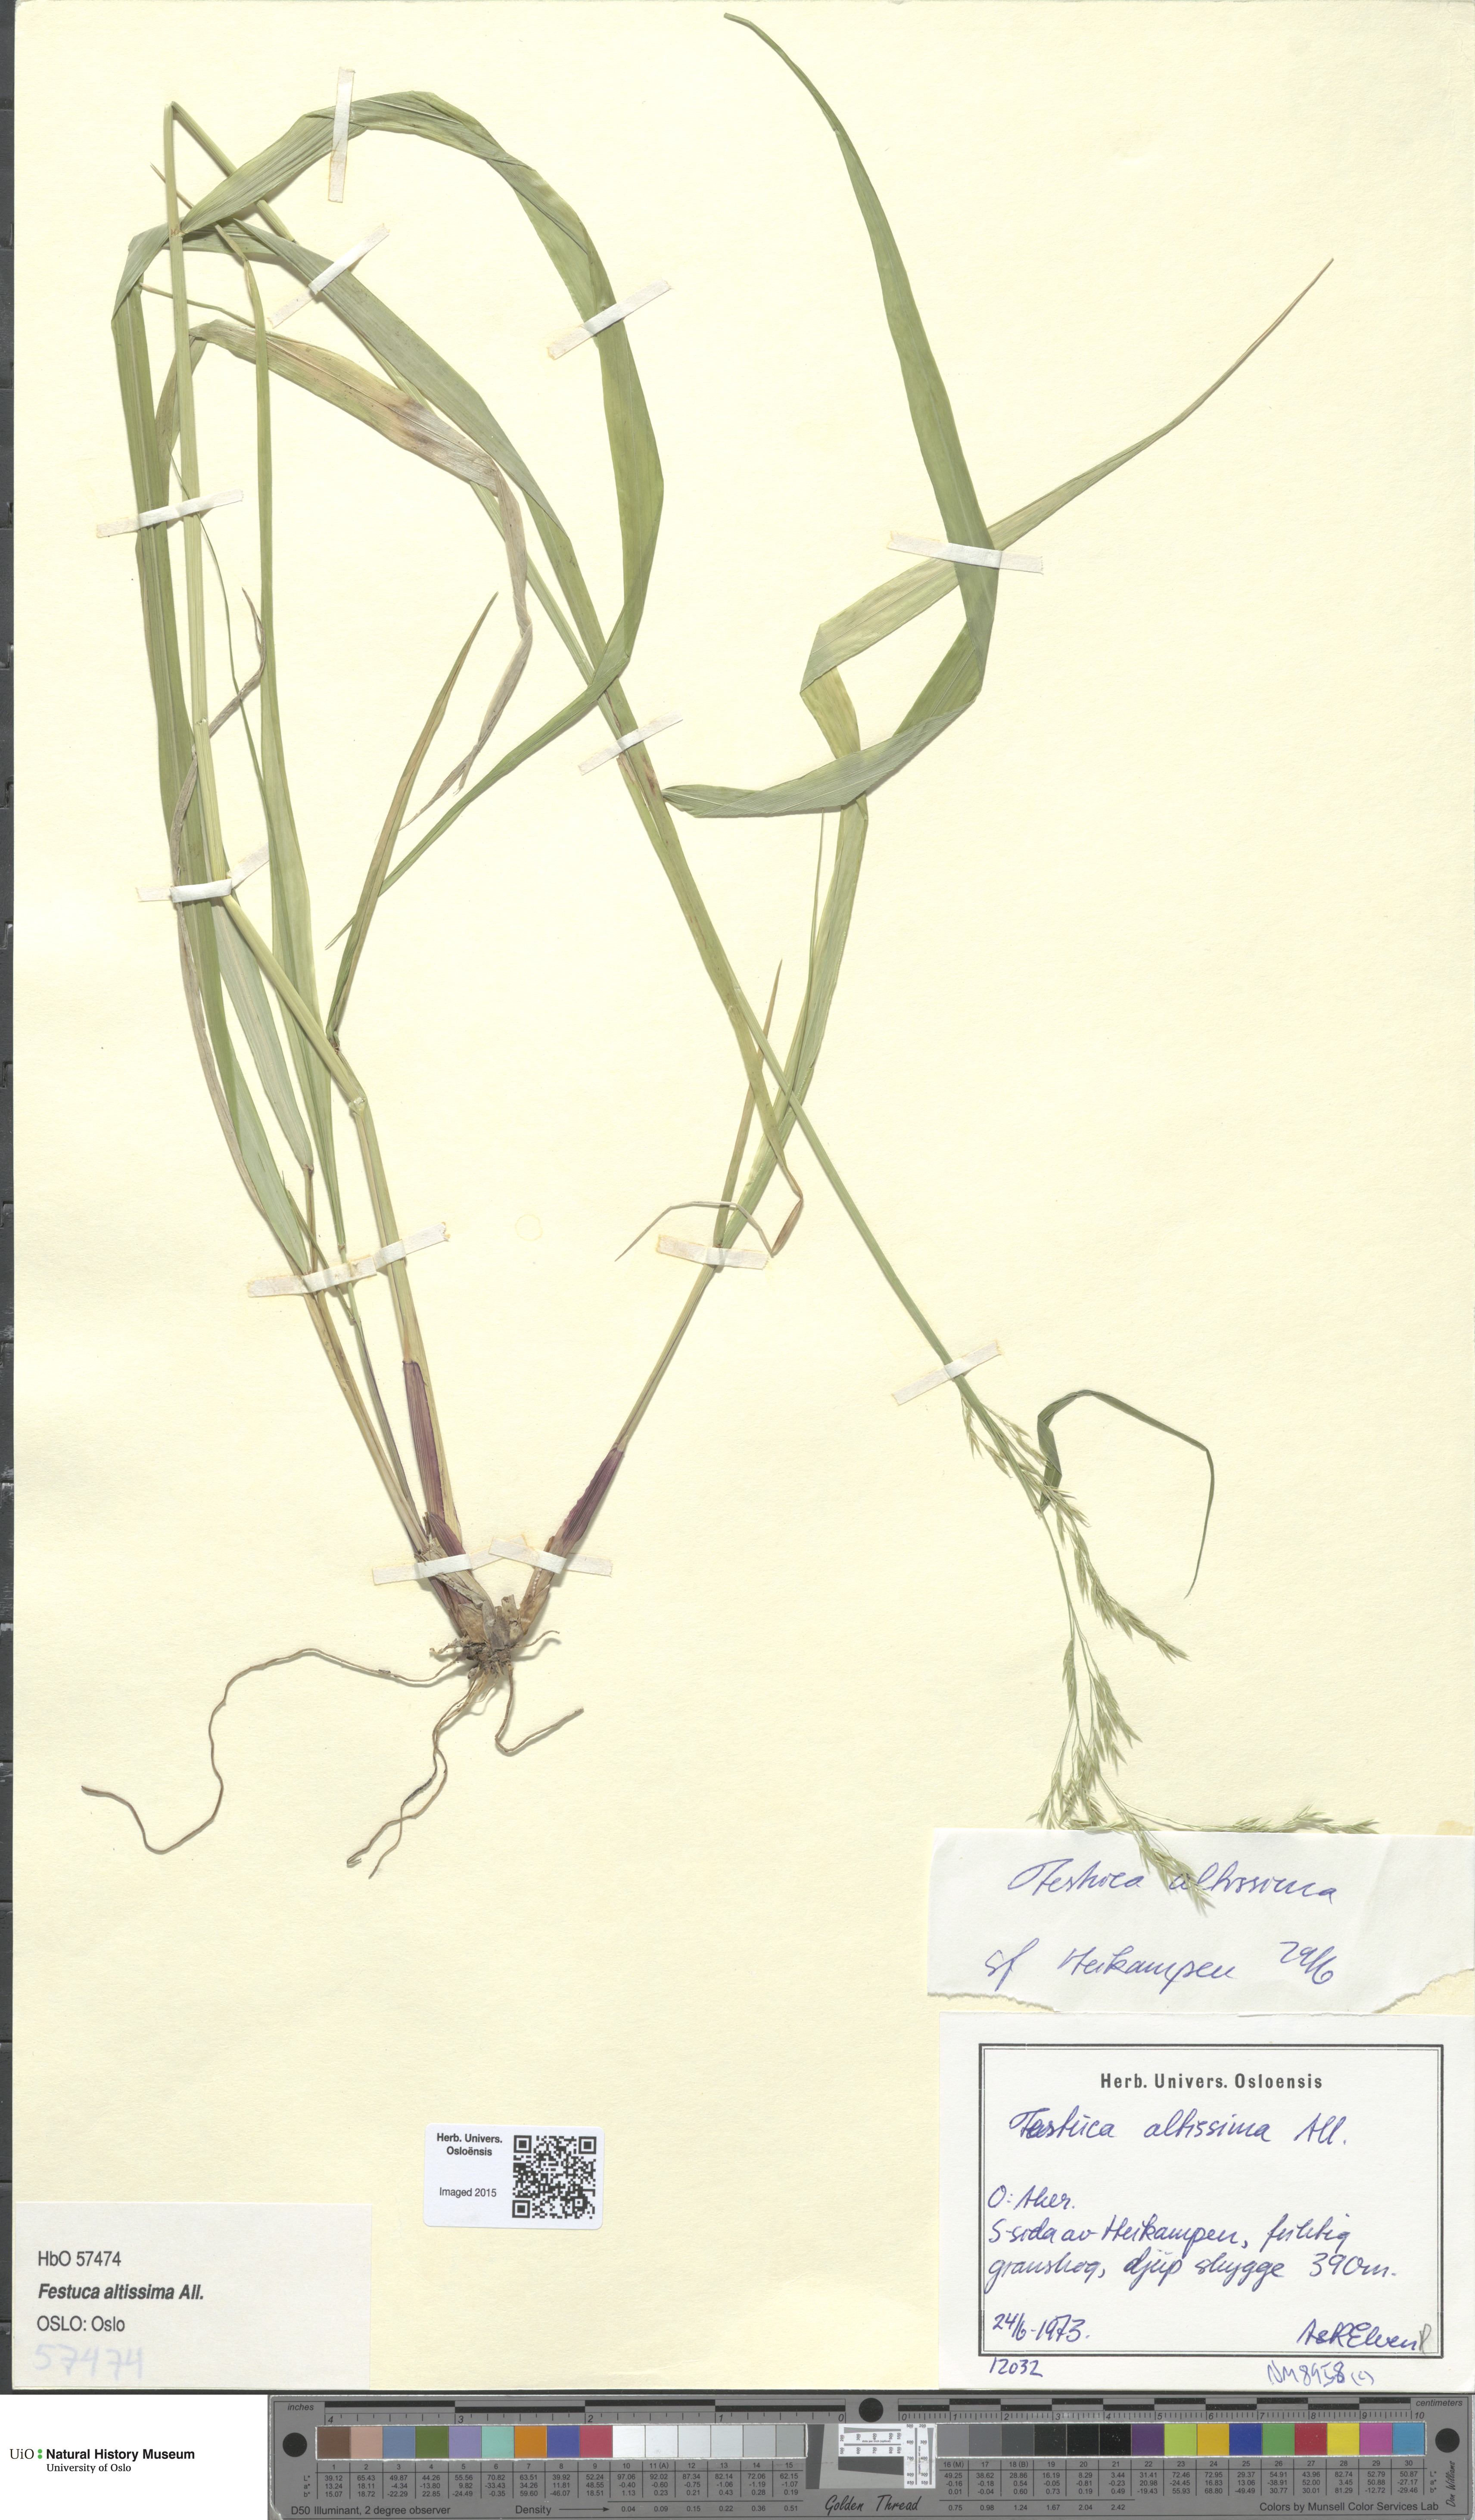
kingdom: Plantae
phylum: Tracheophyta
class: Liliopsida
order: Poales
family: Poaceae
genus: Festuca
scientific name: Festuca altissima
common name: Wood fescue
